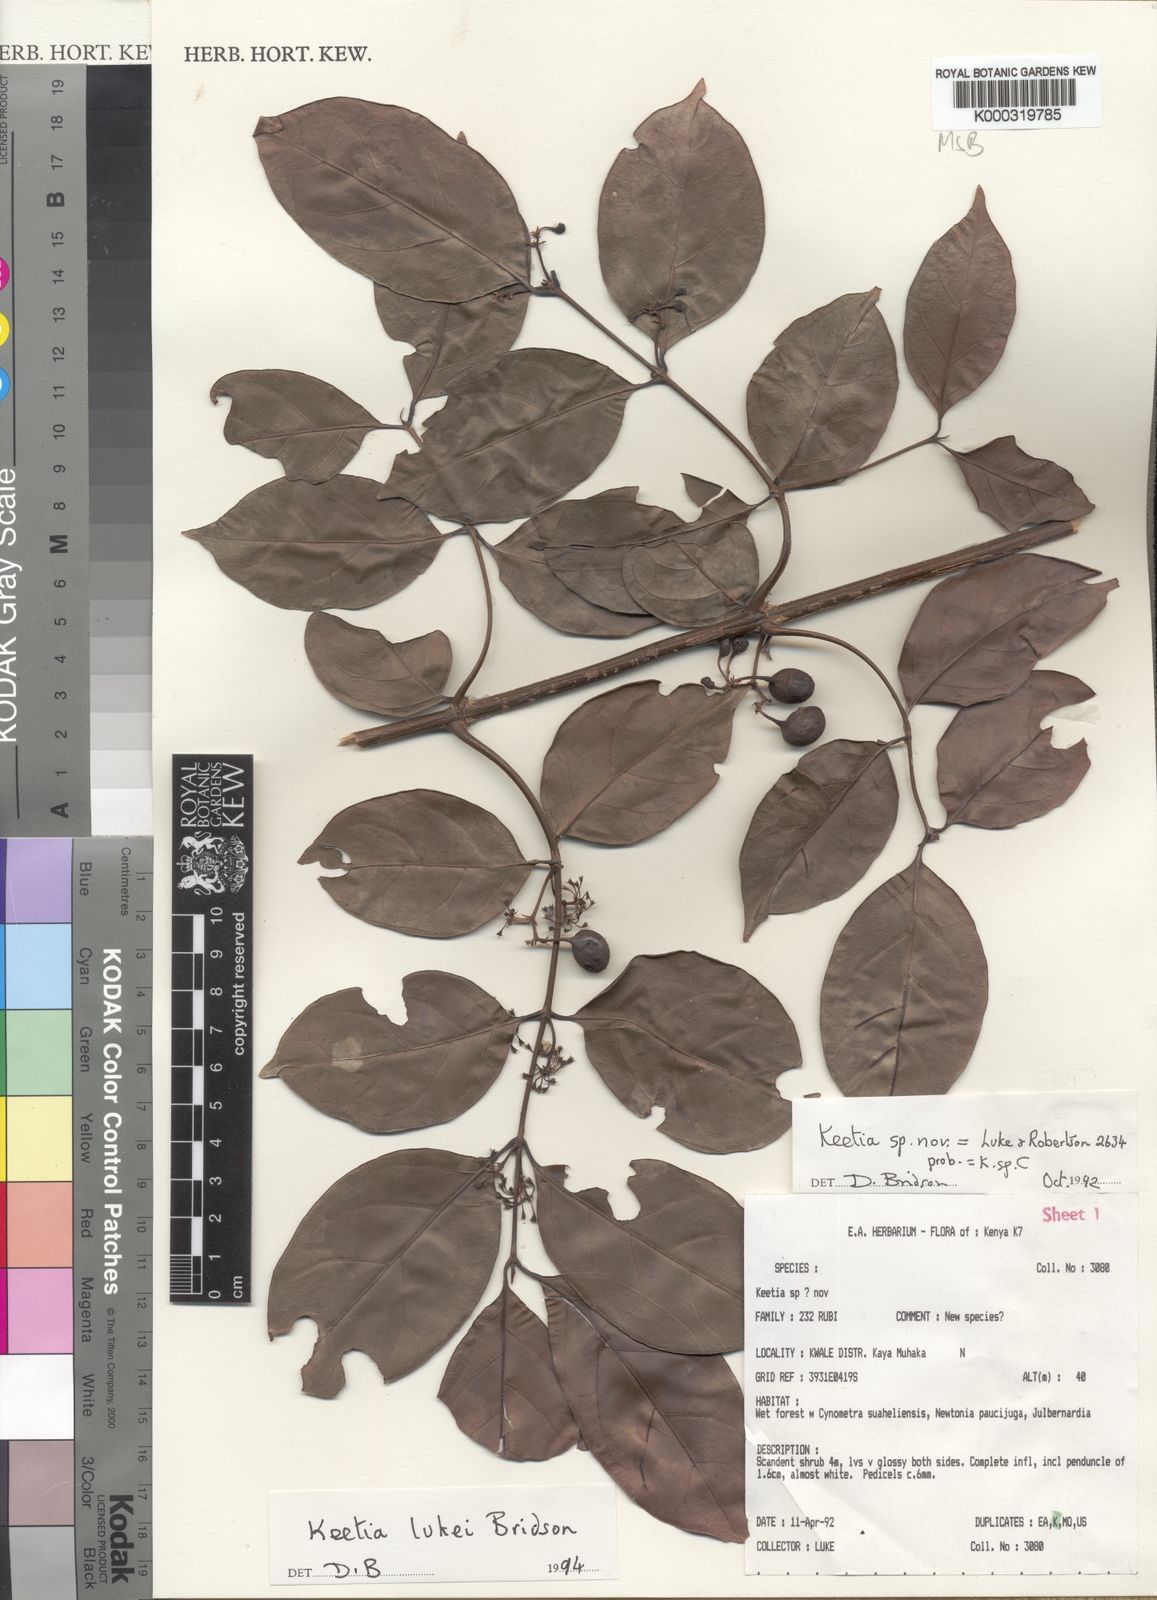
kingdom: Plantae
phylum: Tracheophyta
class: Magnoliopsida
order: Gentianales
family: Rubiaceae
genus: Keetia
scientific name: Keetia lukei
